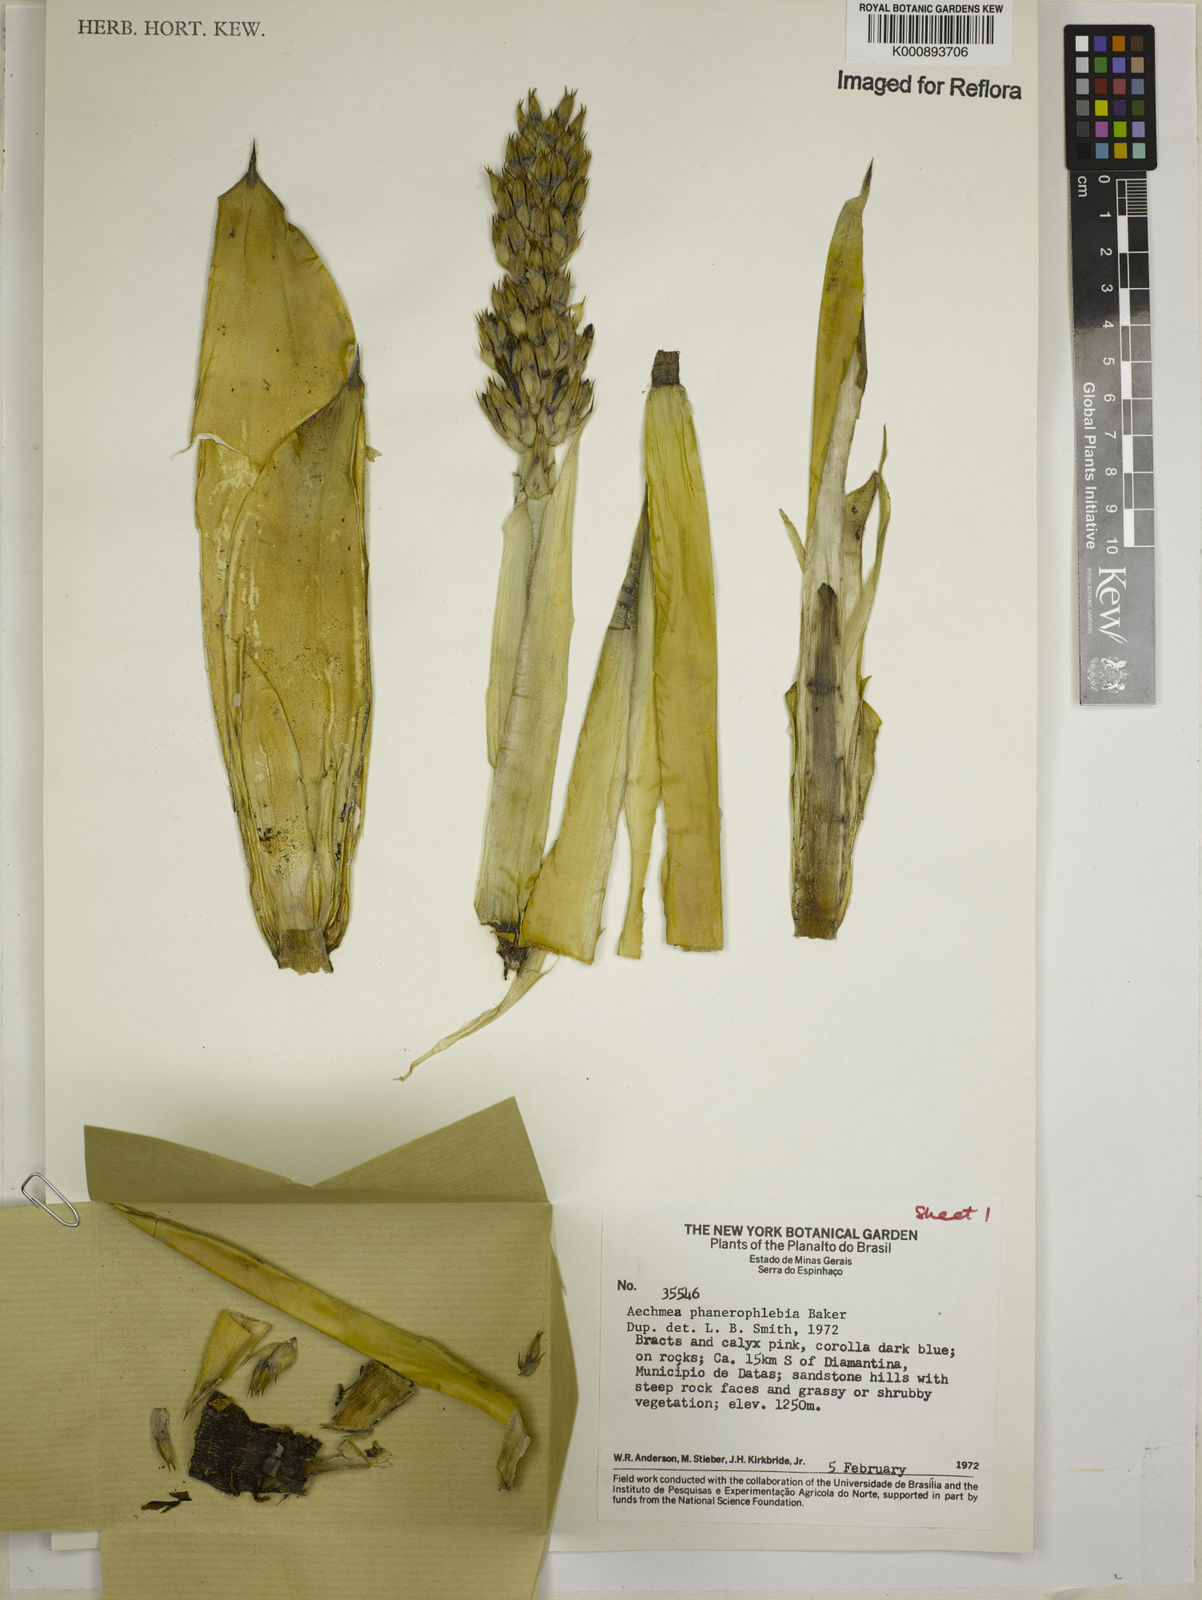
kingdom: Plantae
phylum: Tracheophyta
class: Liliopsida
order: Poales
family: Bromeliaceae
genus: Aechmea
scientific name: Aechmea phanerophlebia
